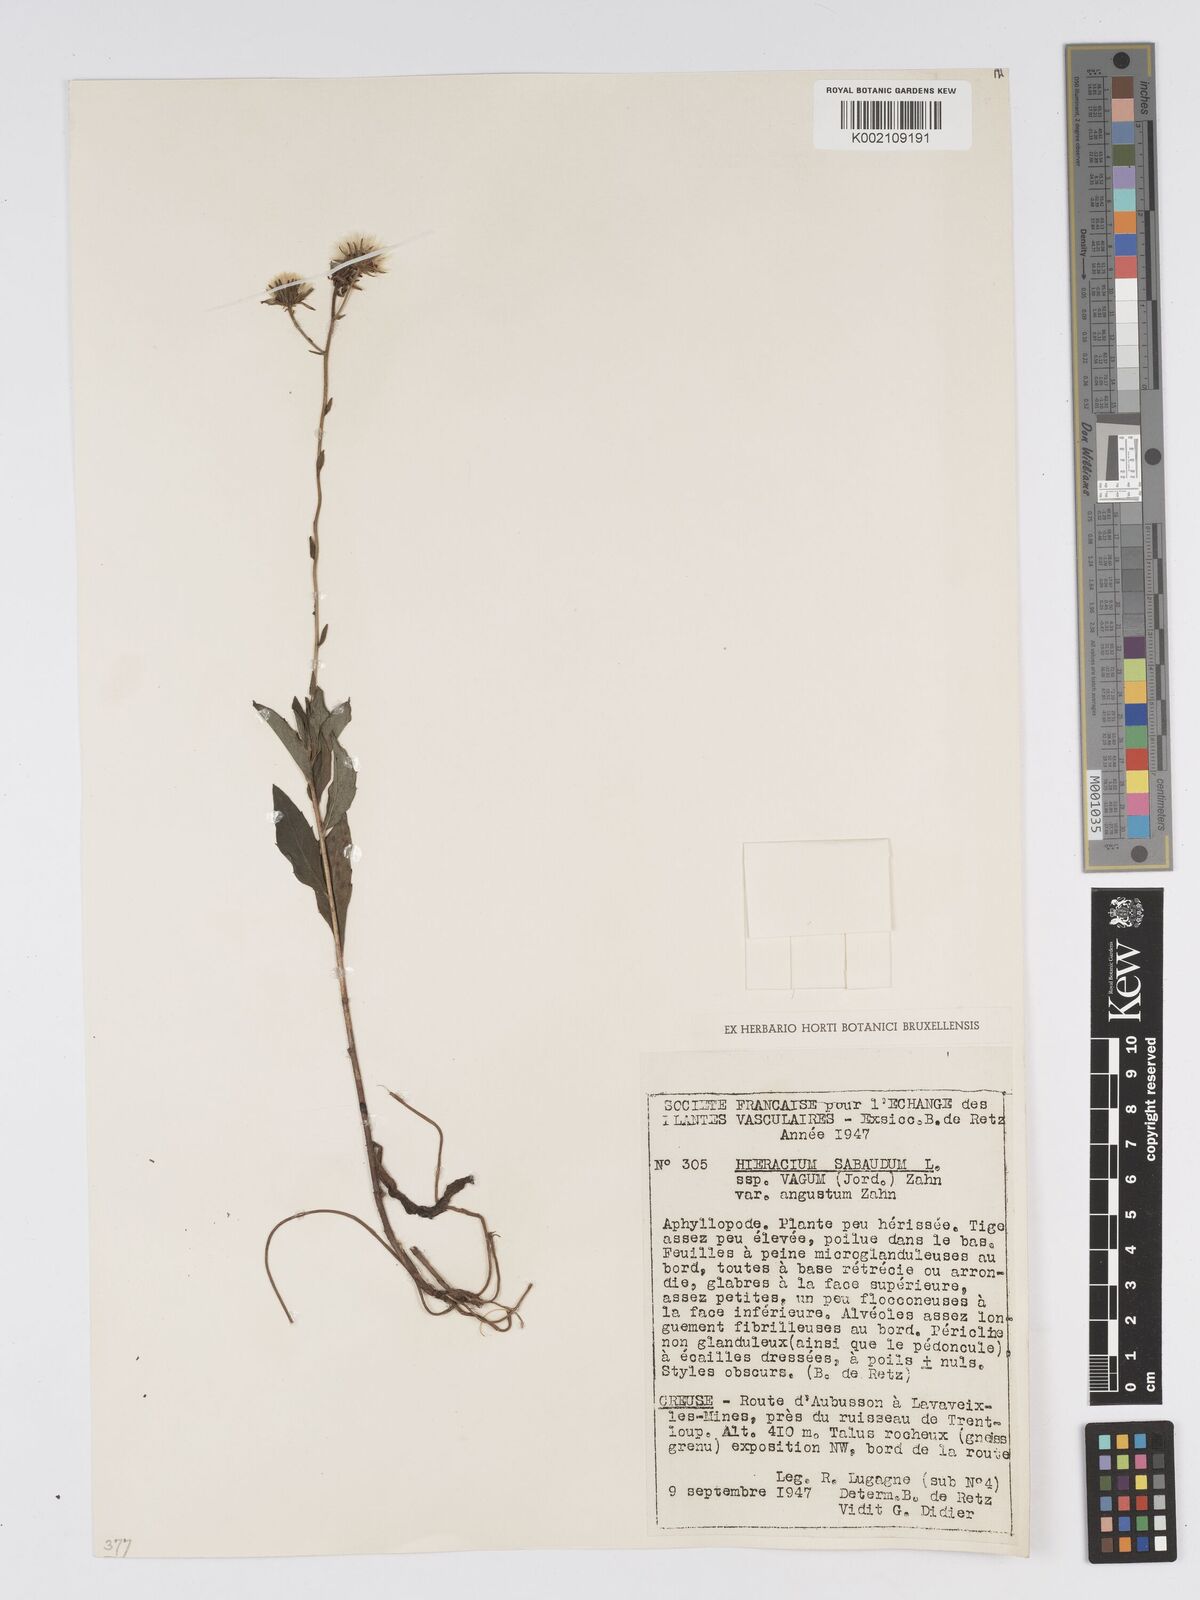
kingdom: Plantae
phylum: Tracheophyta
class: Magnoliopsida
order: Asterales
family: Asteraceae
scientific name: Asteraceae
